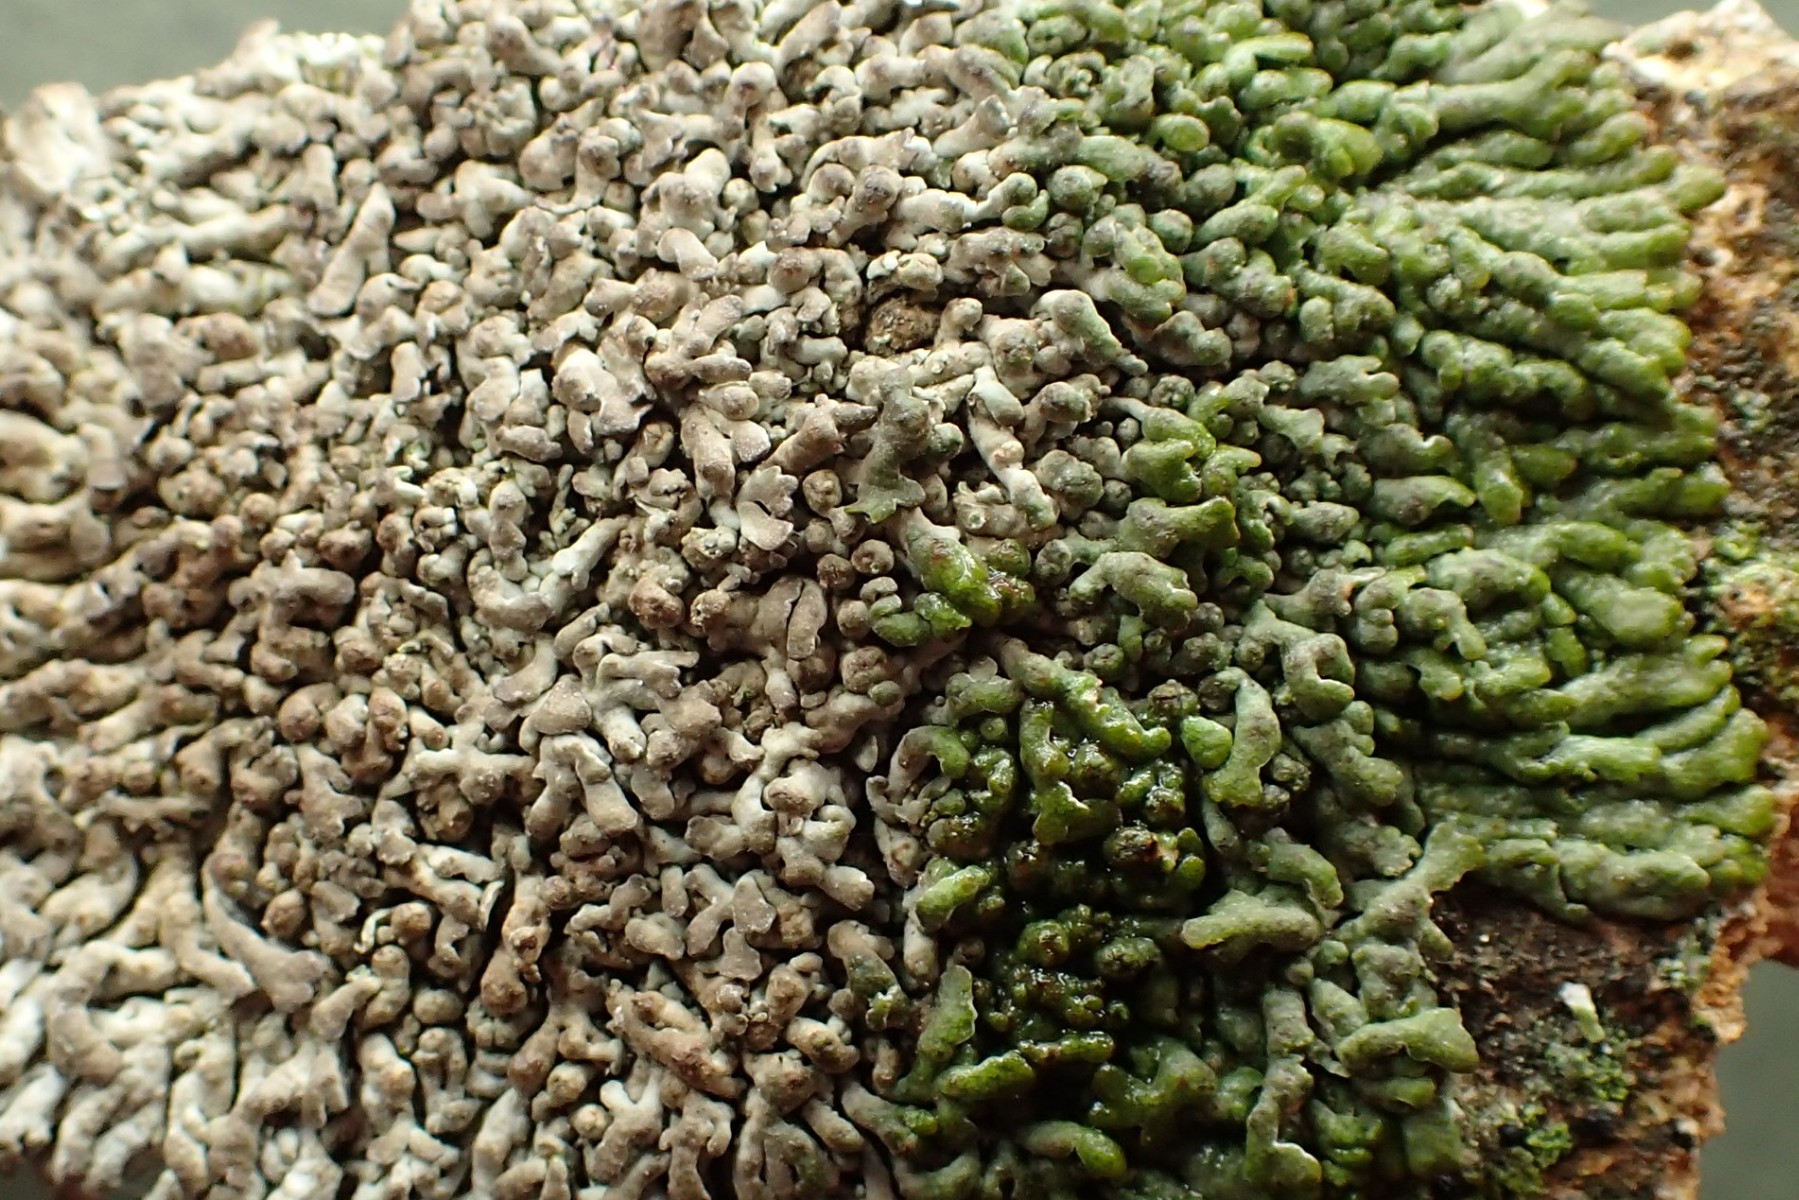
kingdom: Fungi
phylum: Ascomycota
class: Lecanoromycetes
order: Caliciales
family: Physciaceae
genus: Kurokawia
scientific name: Kurokawia runcinata
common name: brun frynselav
